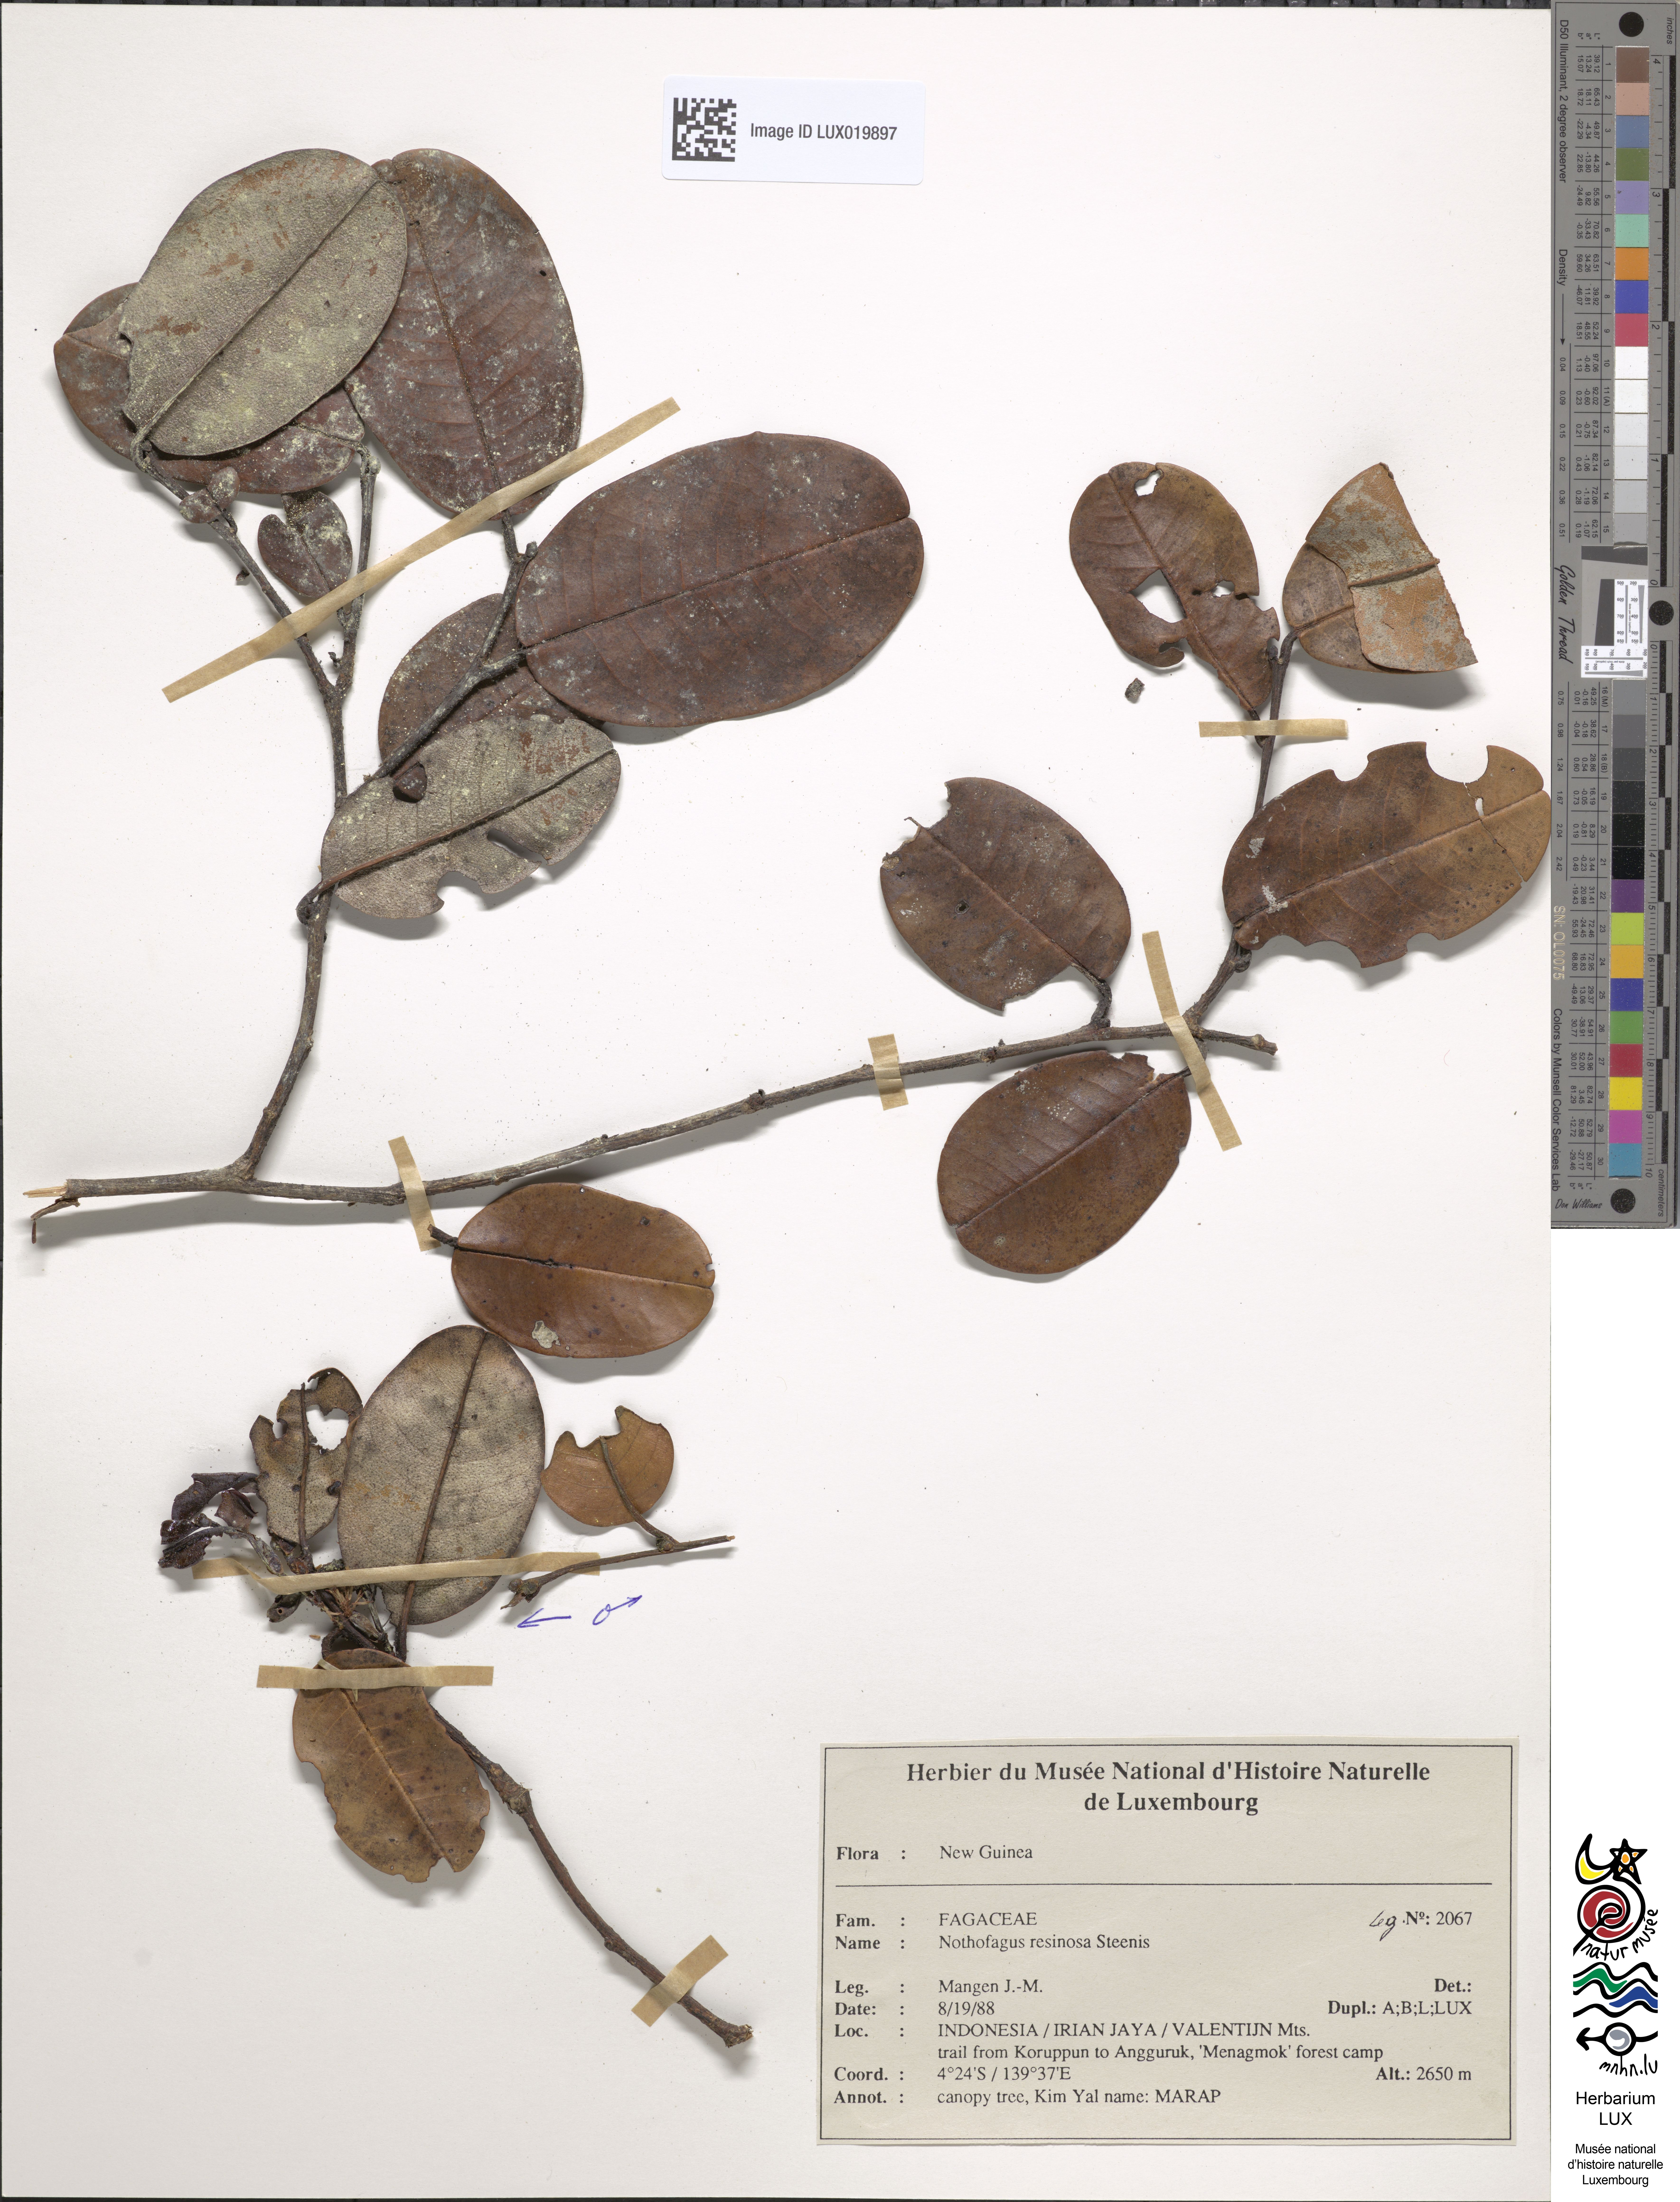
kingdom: Plantae
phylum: Tracheophyta
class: Magnoliopsida
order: Fagales
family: Nothofagaceae
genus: Nothofagus
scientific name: Nothofagus resinosa
